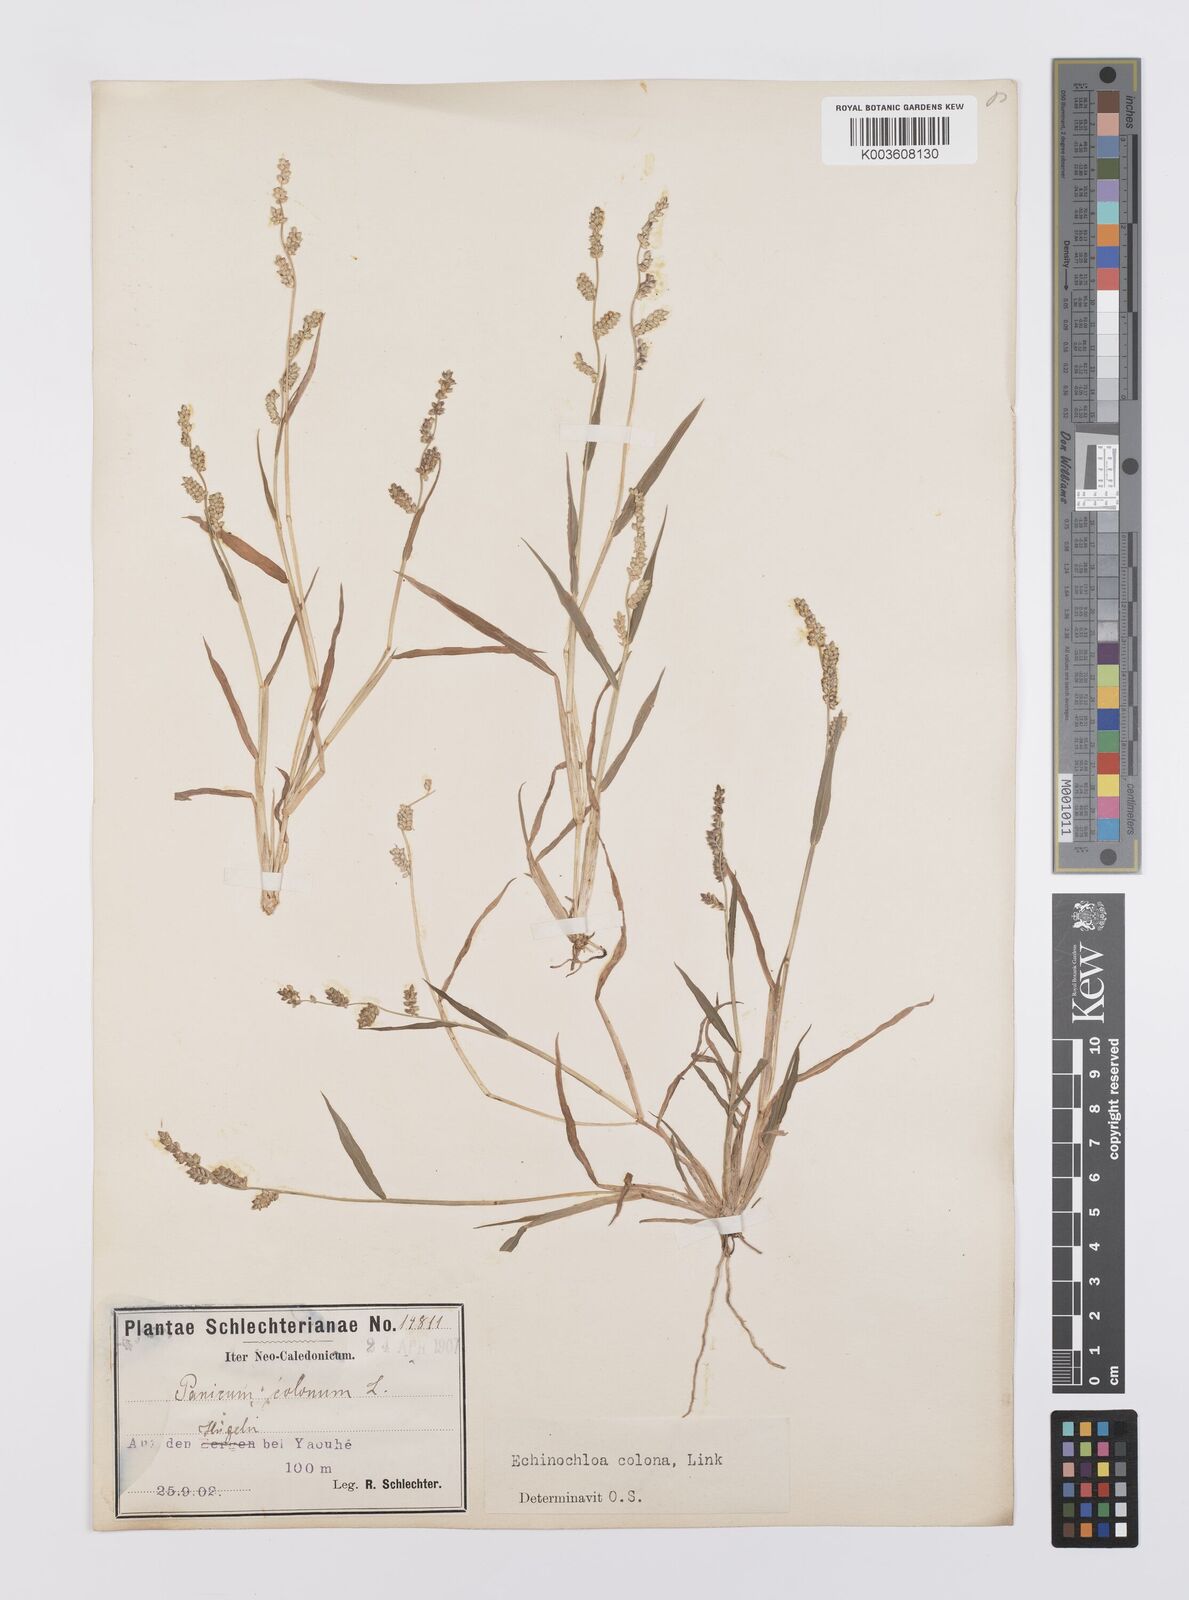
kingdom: Plantae
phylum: Tracheophyta
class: Liliopsida
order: Poales
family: Poaceae
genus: Echinochloa
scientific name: Echinochloa colonum
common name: Jungle rice
